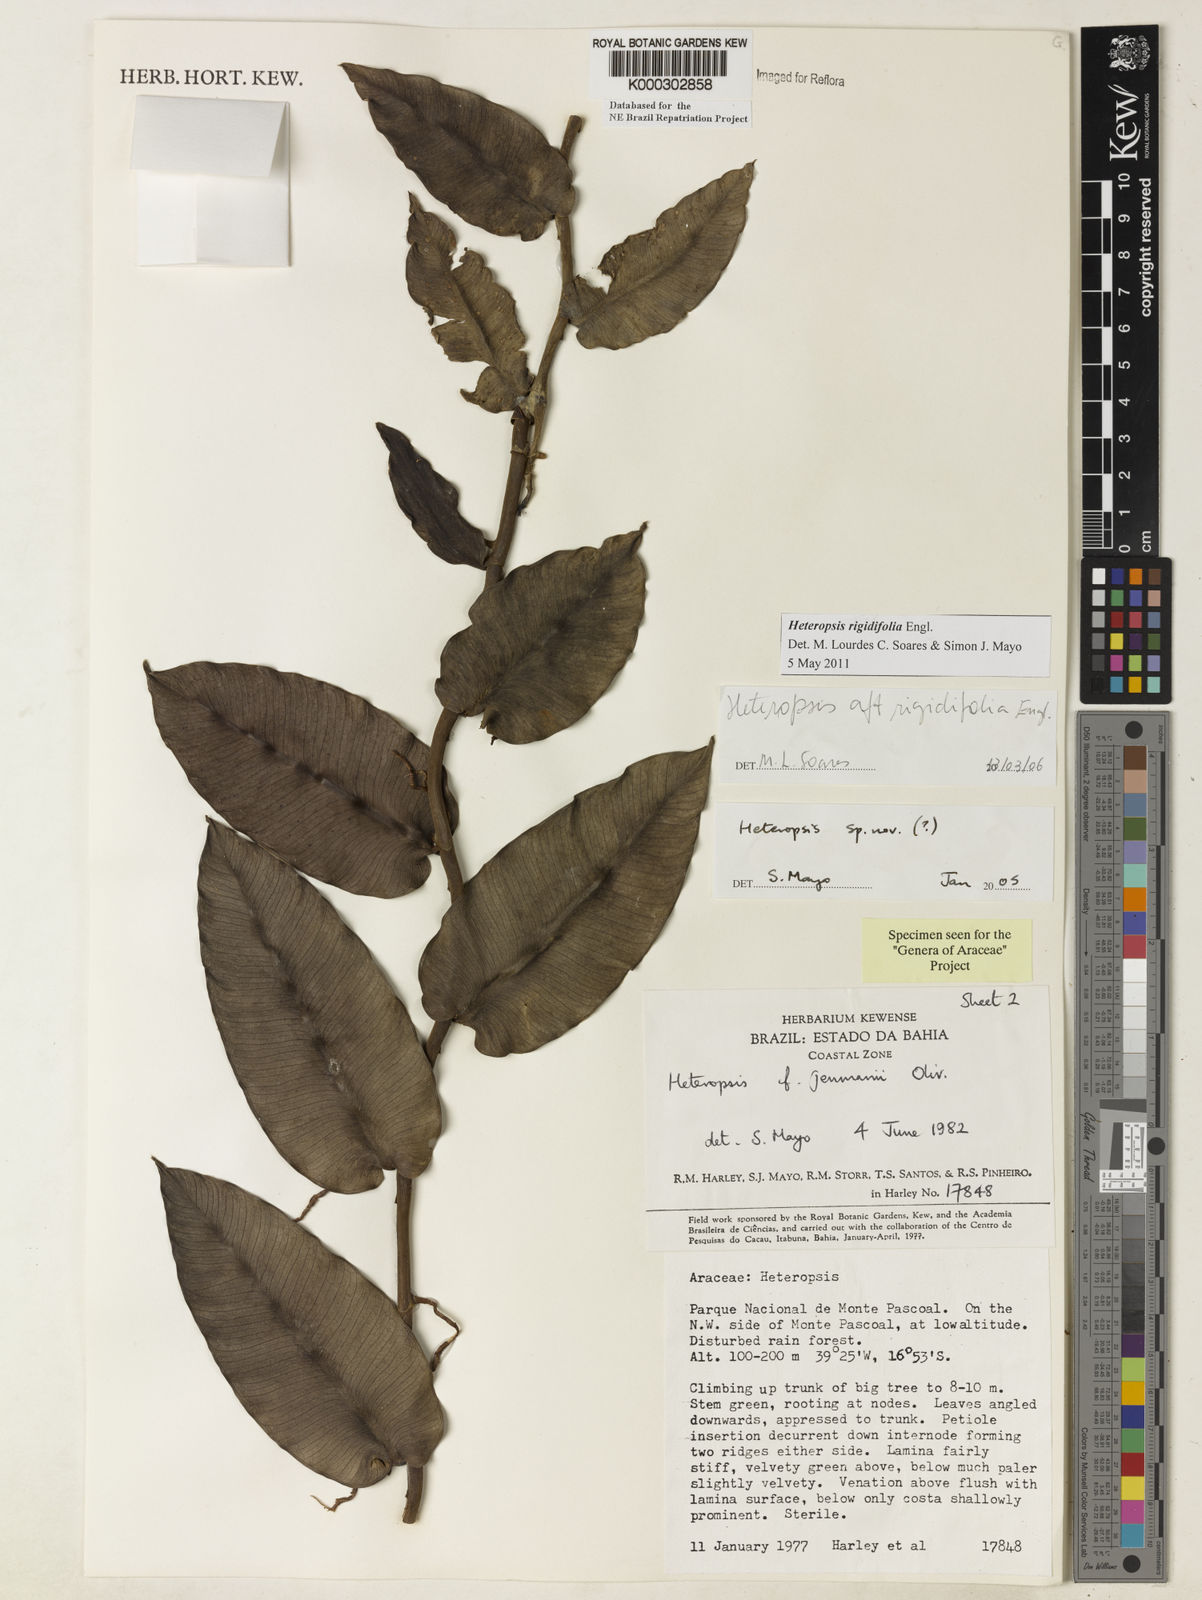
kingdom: Plantae
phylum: Tracheophyta
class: Liliopsida
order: Alismatales
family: Araceae
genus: Heteropsis
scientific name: Heteropsis
